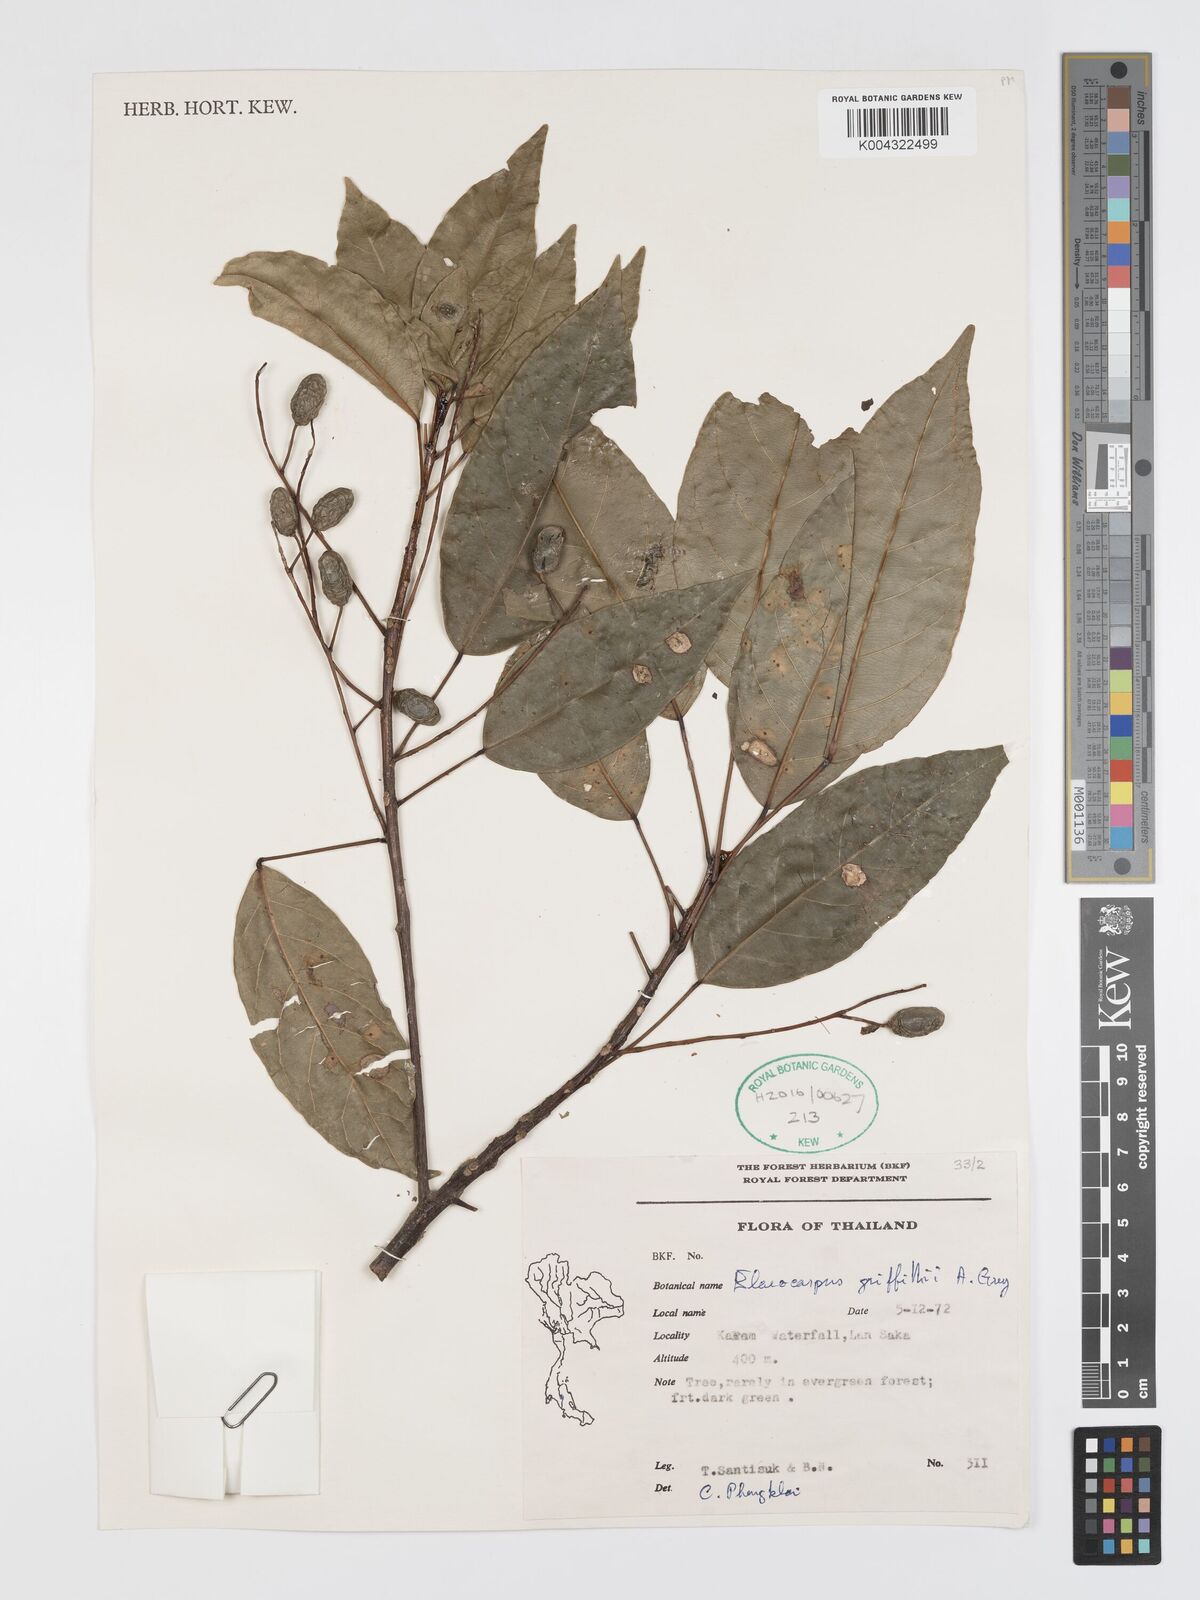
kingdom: Plantae
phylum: Tracheophyta
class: Magnoliopsida
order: Oxalidales
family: Elaeocarpaceae
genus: Elaeocarpus
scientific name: Elaeocarpus griffithii
